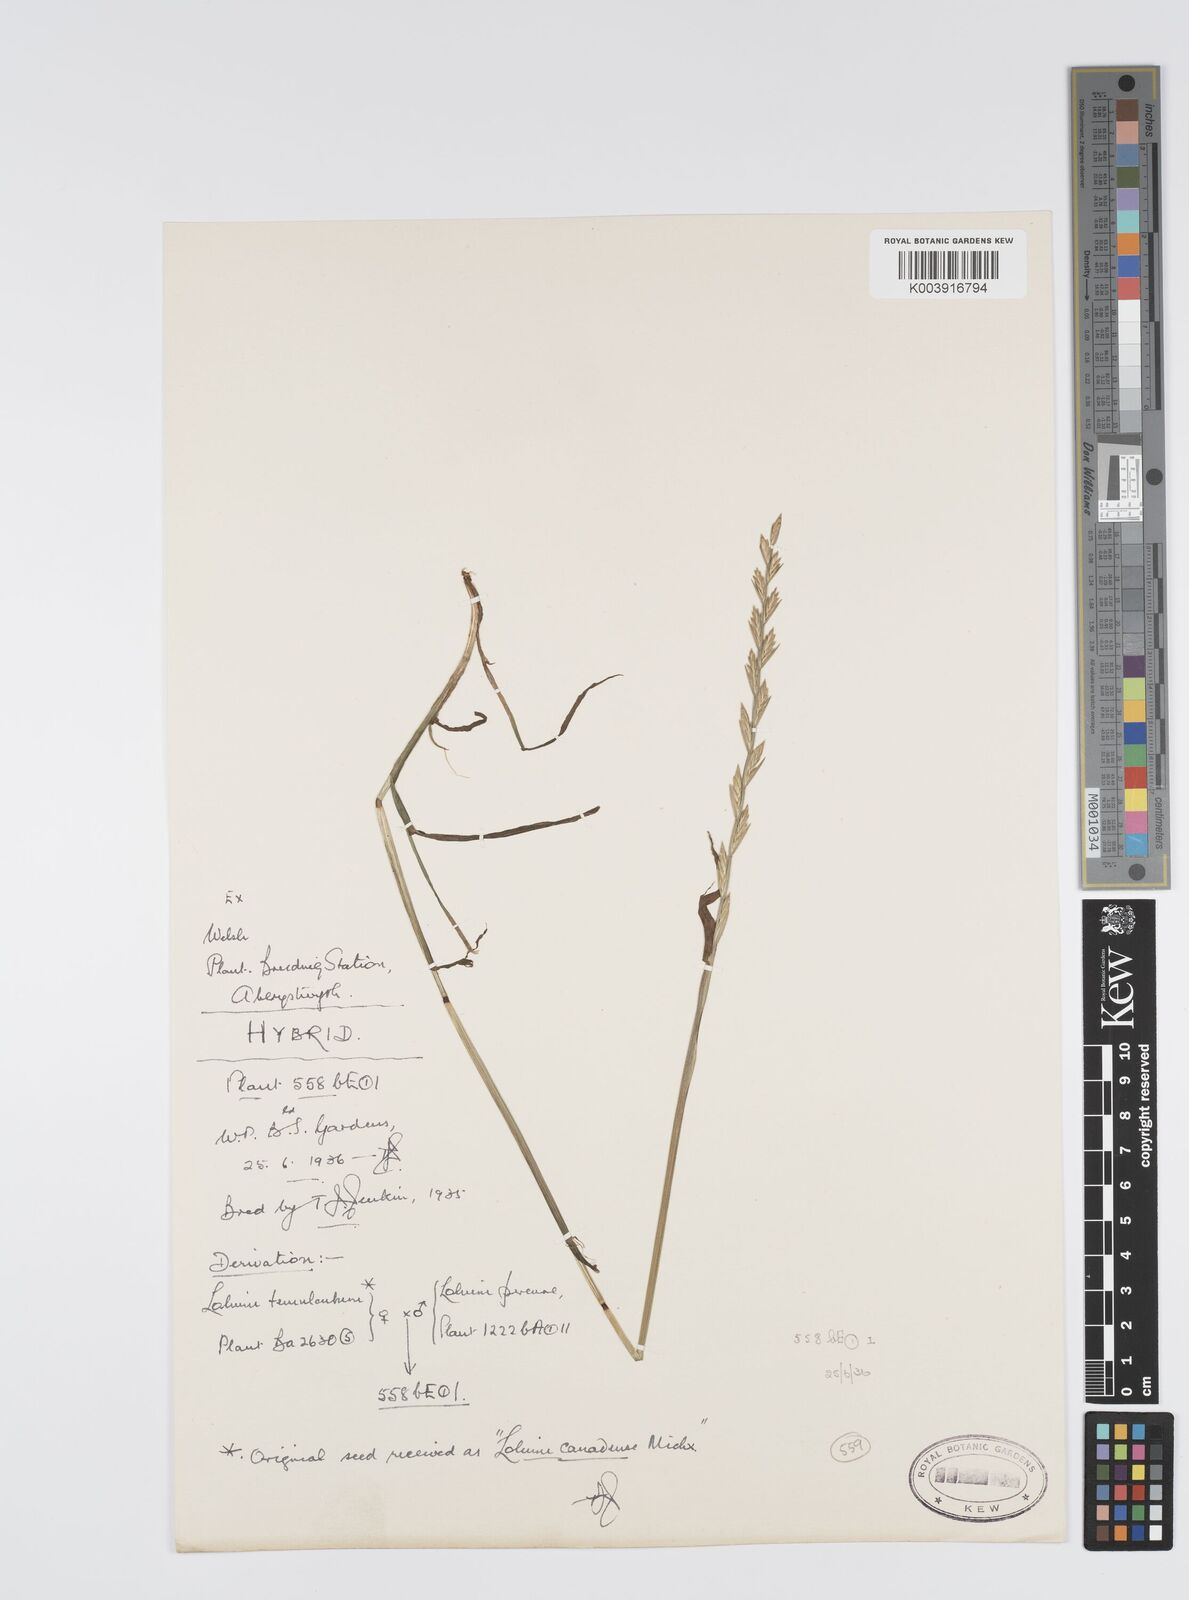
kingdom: Plantae
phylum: Tracheophyta
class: Liliopsida
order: Poales
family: Poaceae
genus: Lolium
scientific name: Lolium perenne
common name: Perennial ryegrass
